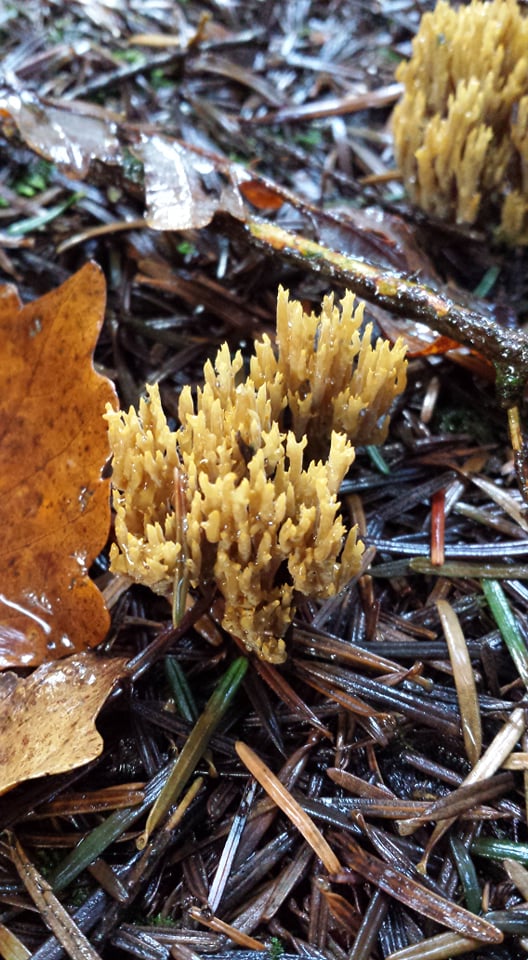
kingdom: Fungi
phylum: Basidiomycota
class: Agaricomycetes
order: Gomphales
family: Gomphaceae
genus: Phaeoclavulina
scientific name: Phaeoclavulina eumorpha
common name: gran-koralsvamp
